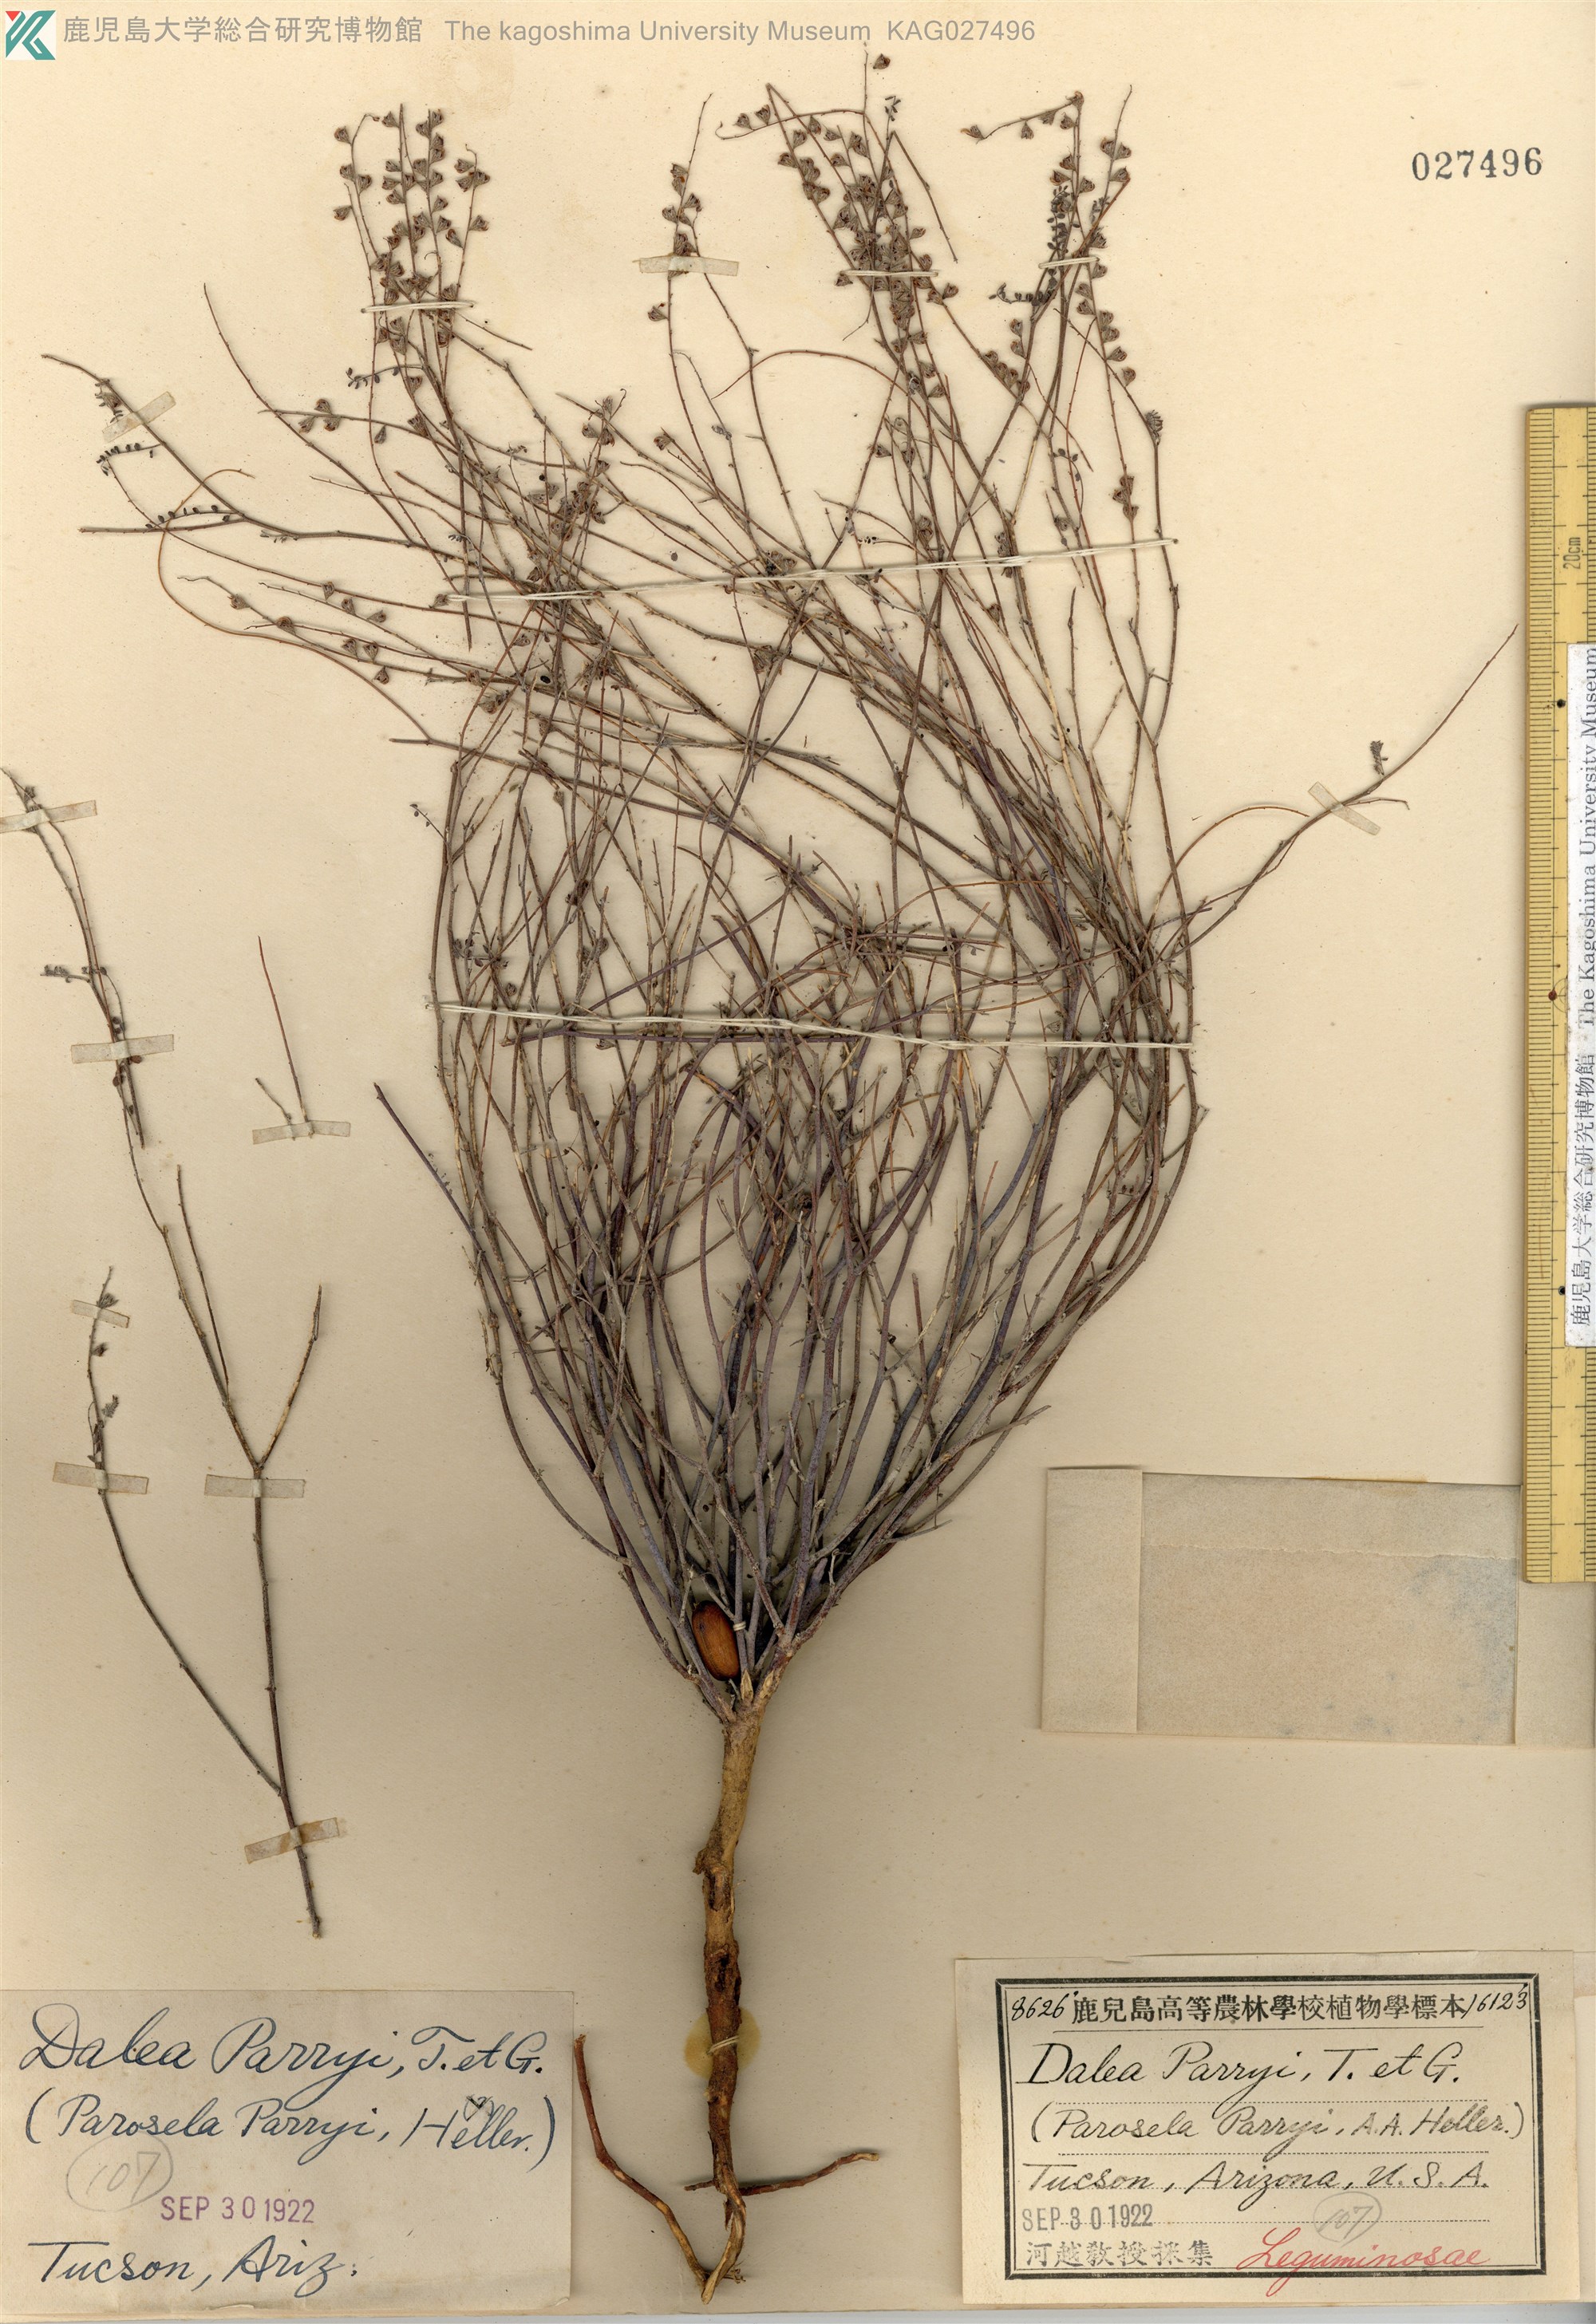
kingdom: Plantae
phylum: Tracheophyta
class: Magnoliopsida
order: Fabales
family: Fabaceae
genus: Marina
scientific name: Marina parryi
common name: Parry's marina
